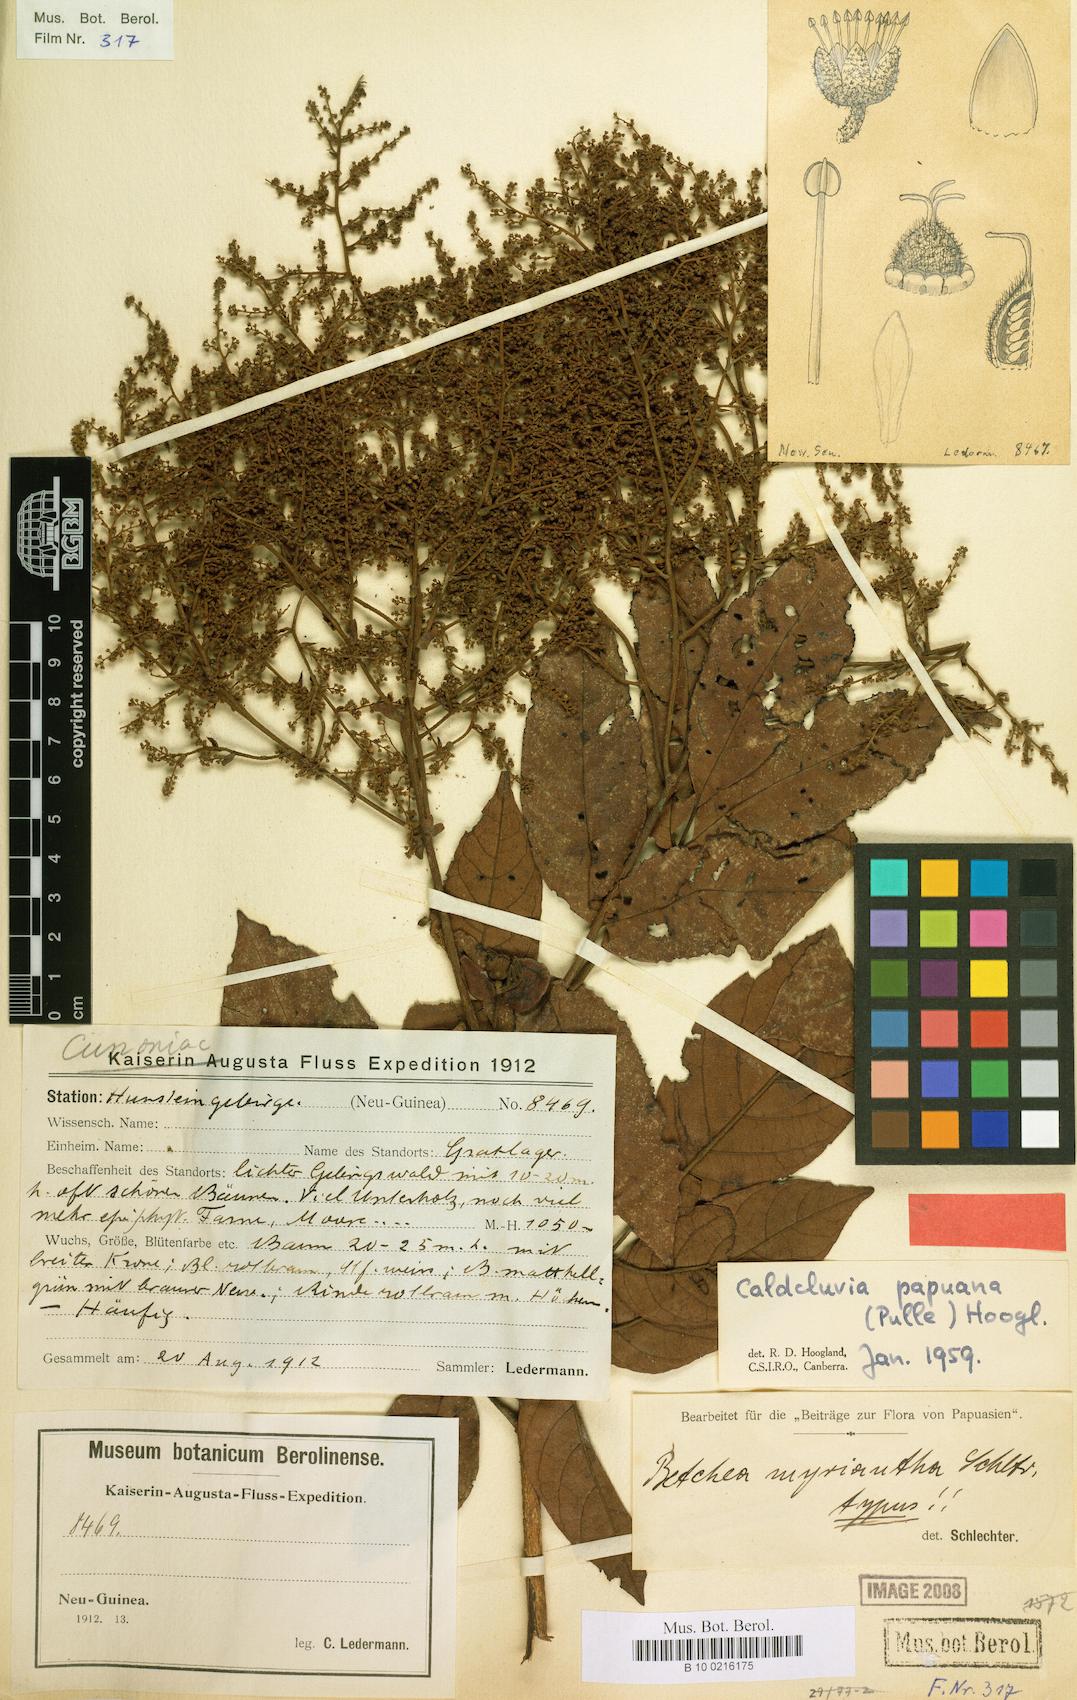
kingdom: Plantae
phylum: Tracheophyta
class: Magnoliopsida
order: Oxalidales
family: Cunoniaceae
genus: Ackama
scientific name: Ackama papuana
